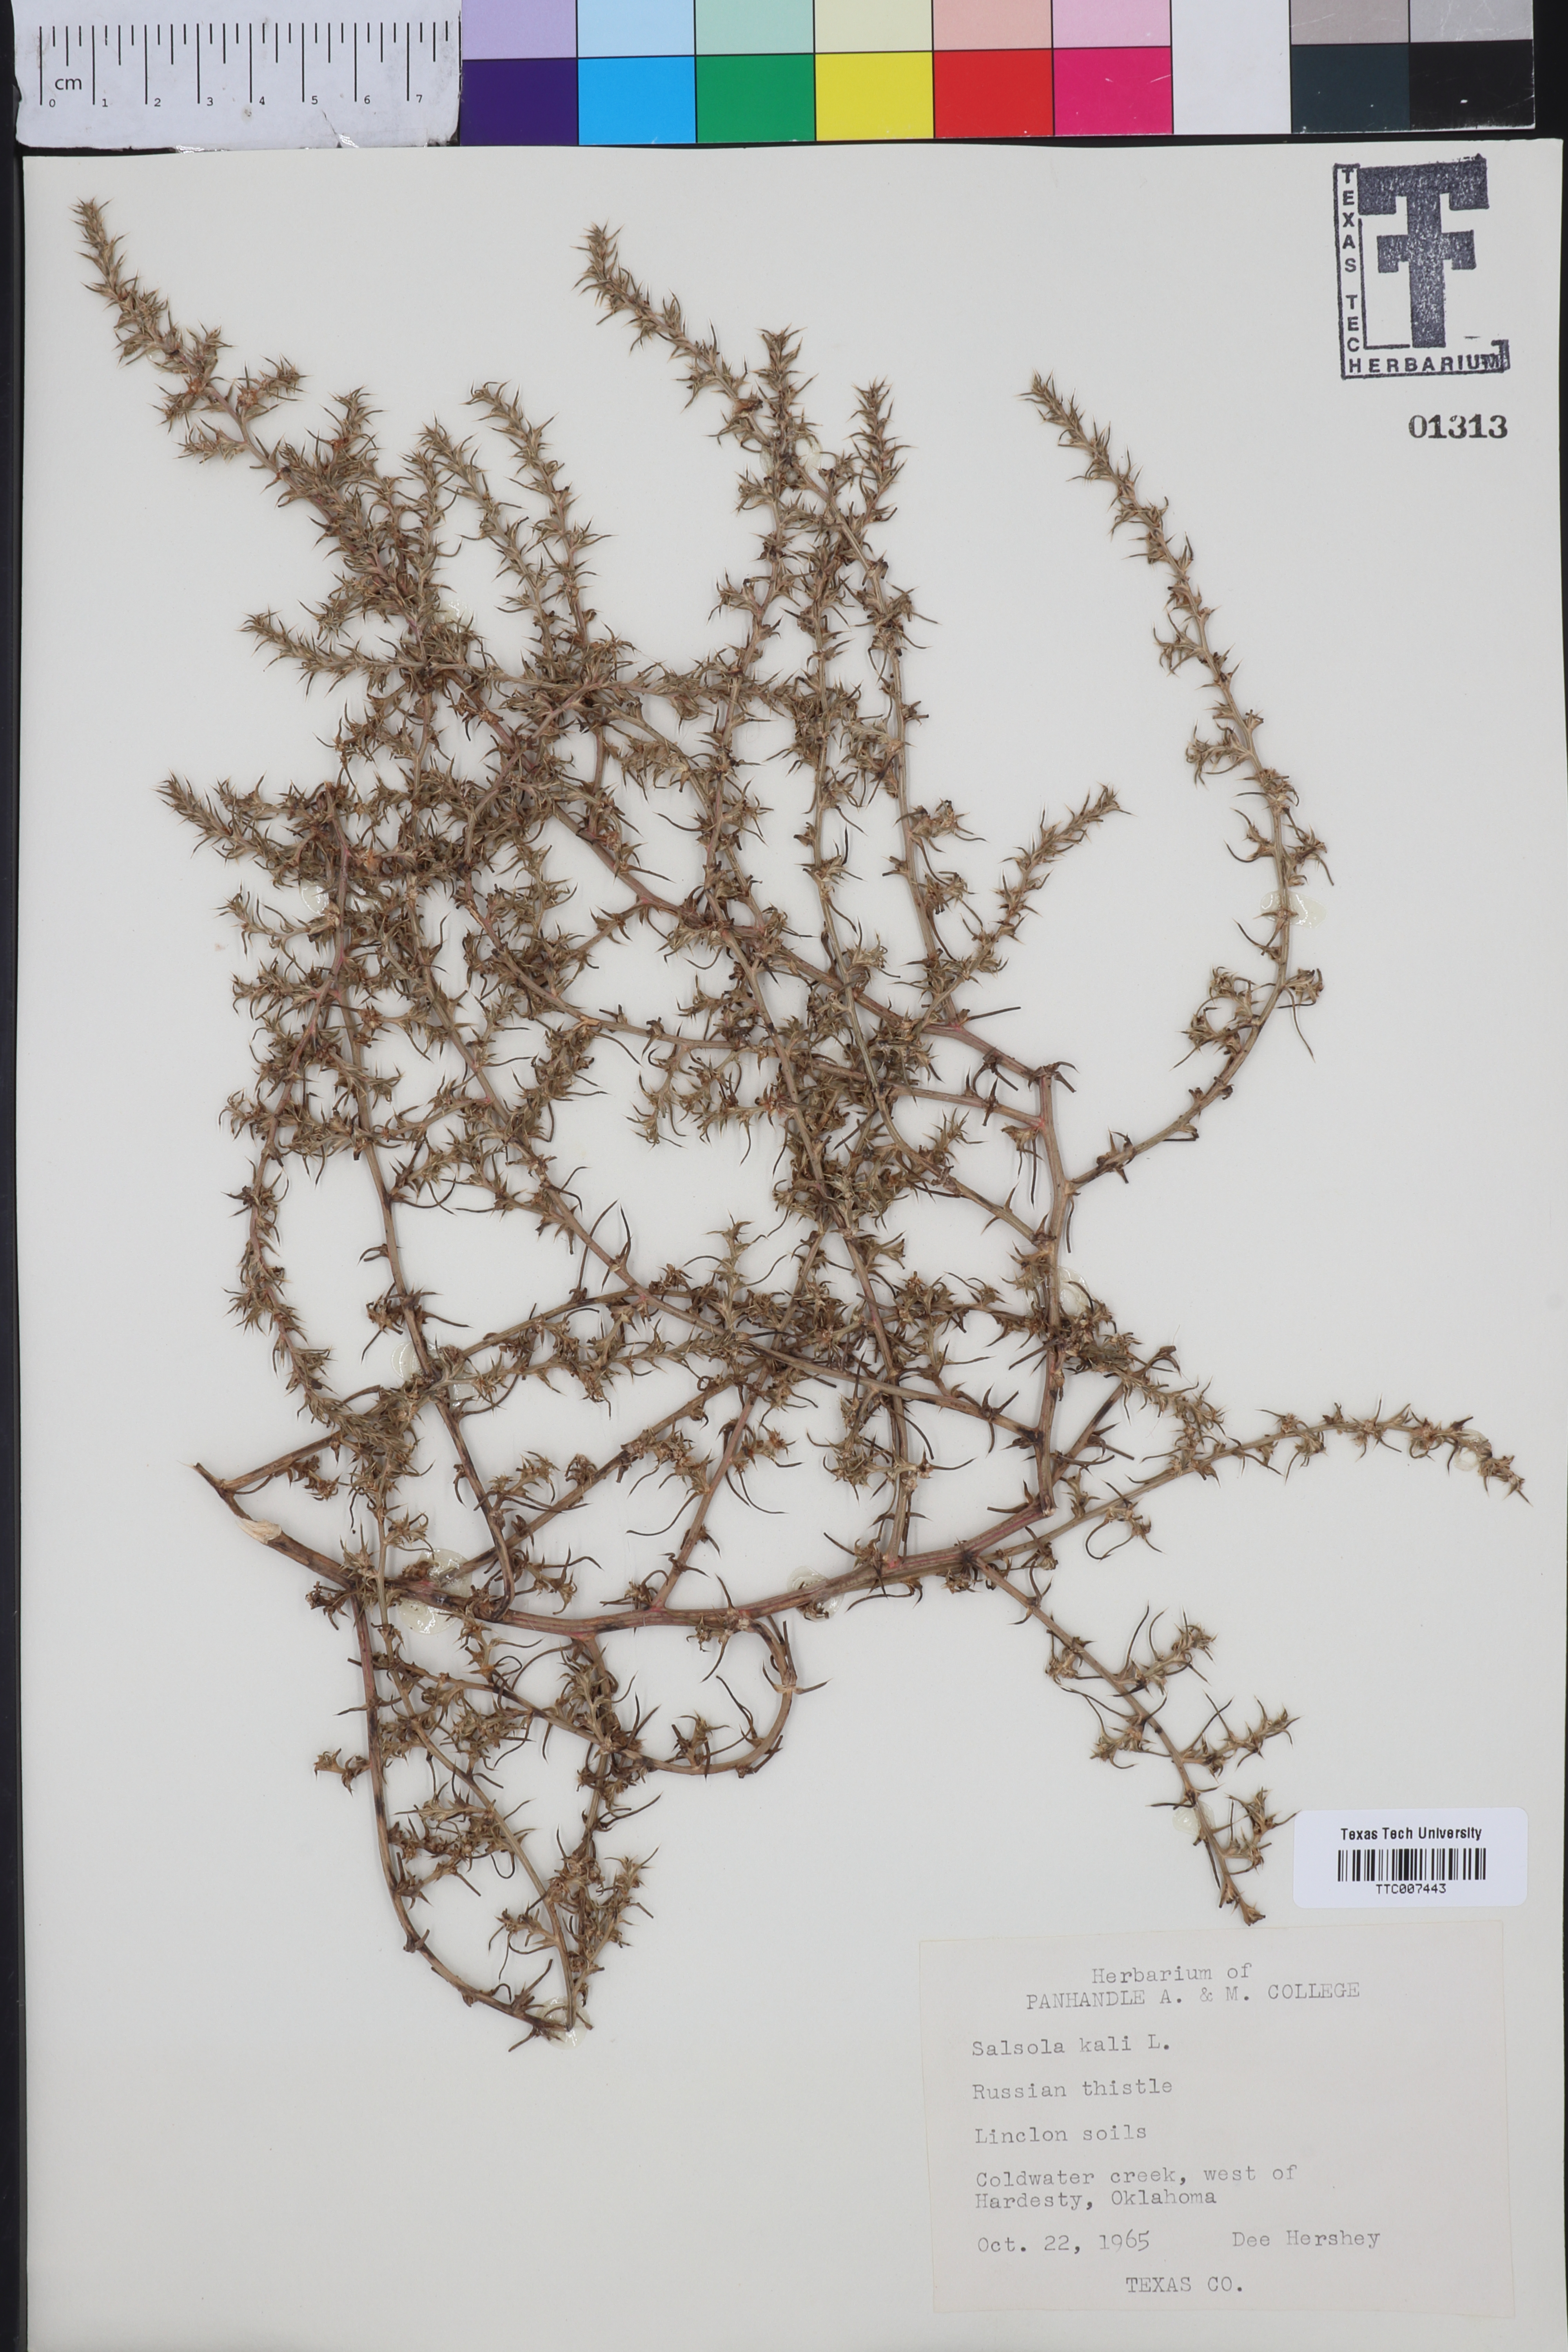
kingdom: Plantae
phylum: Tracheophyta
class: Magnoliopsida
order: Caryophyllales
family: Amaranthaceae
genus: Salsola
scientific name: Salsola kali
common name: Saltwort
